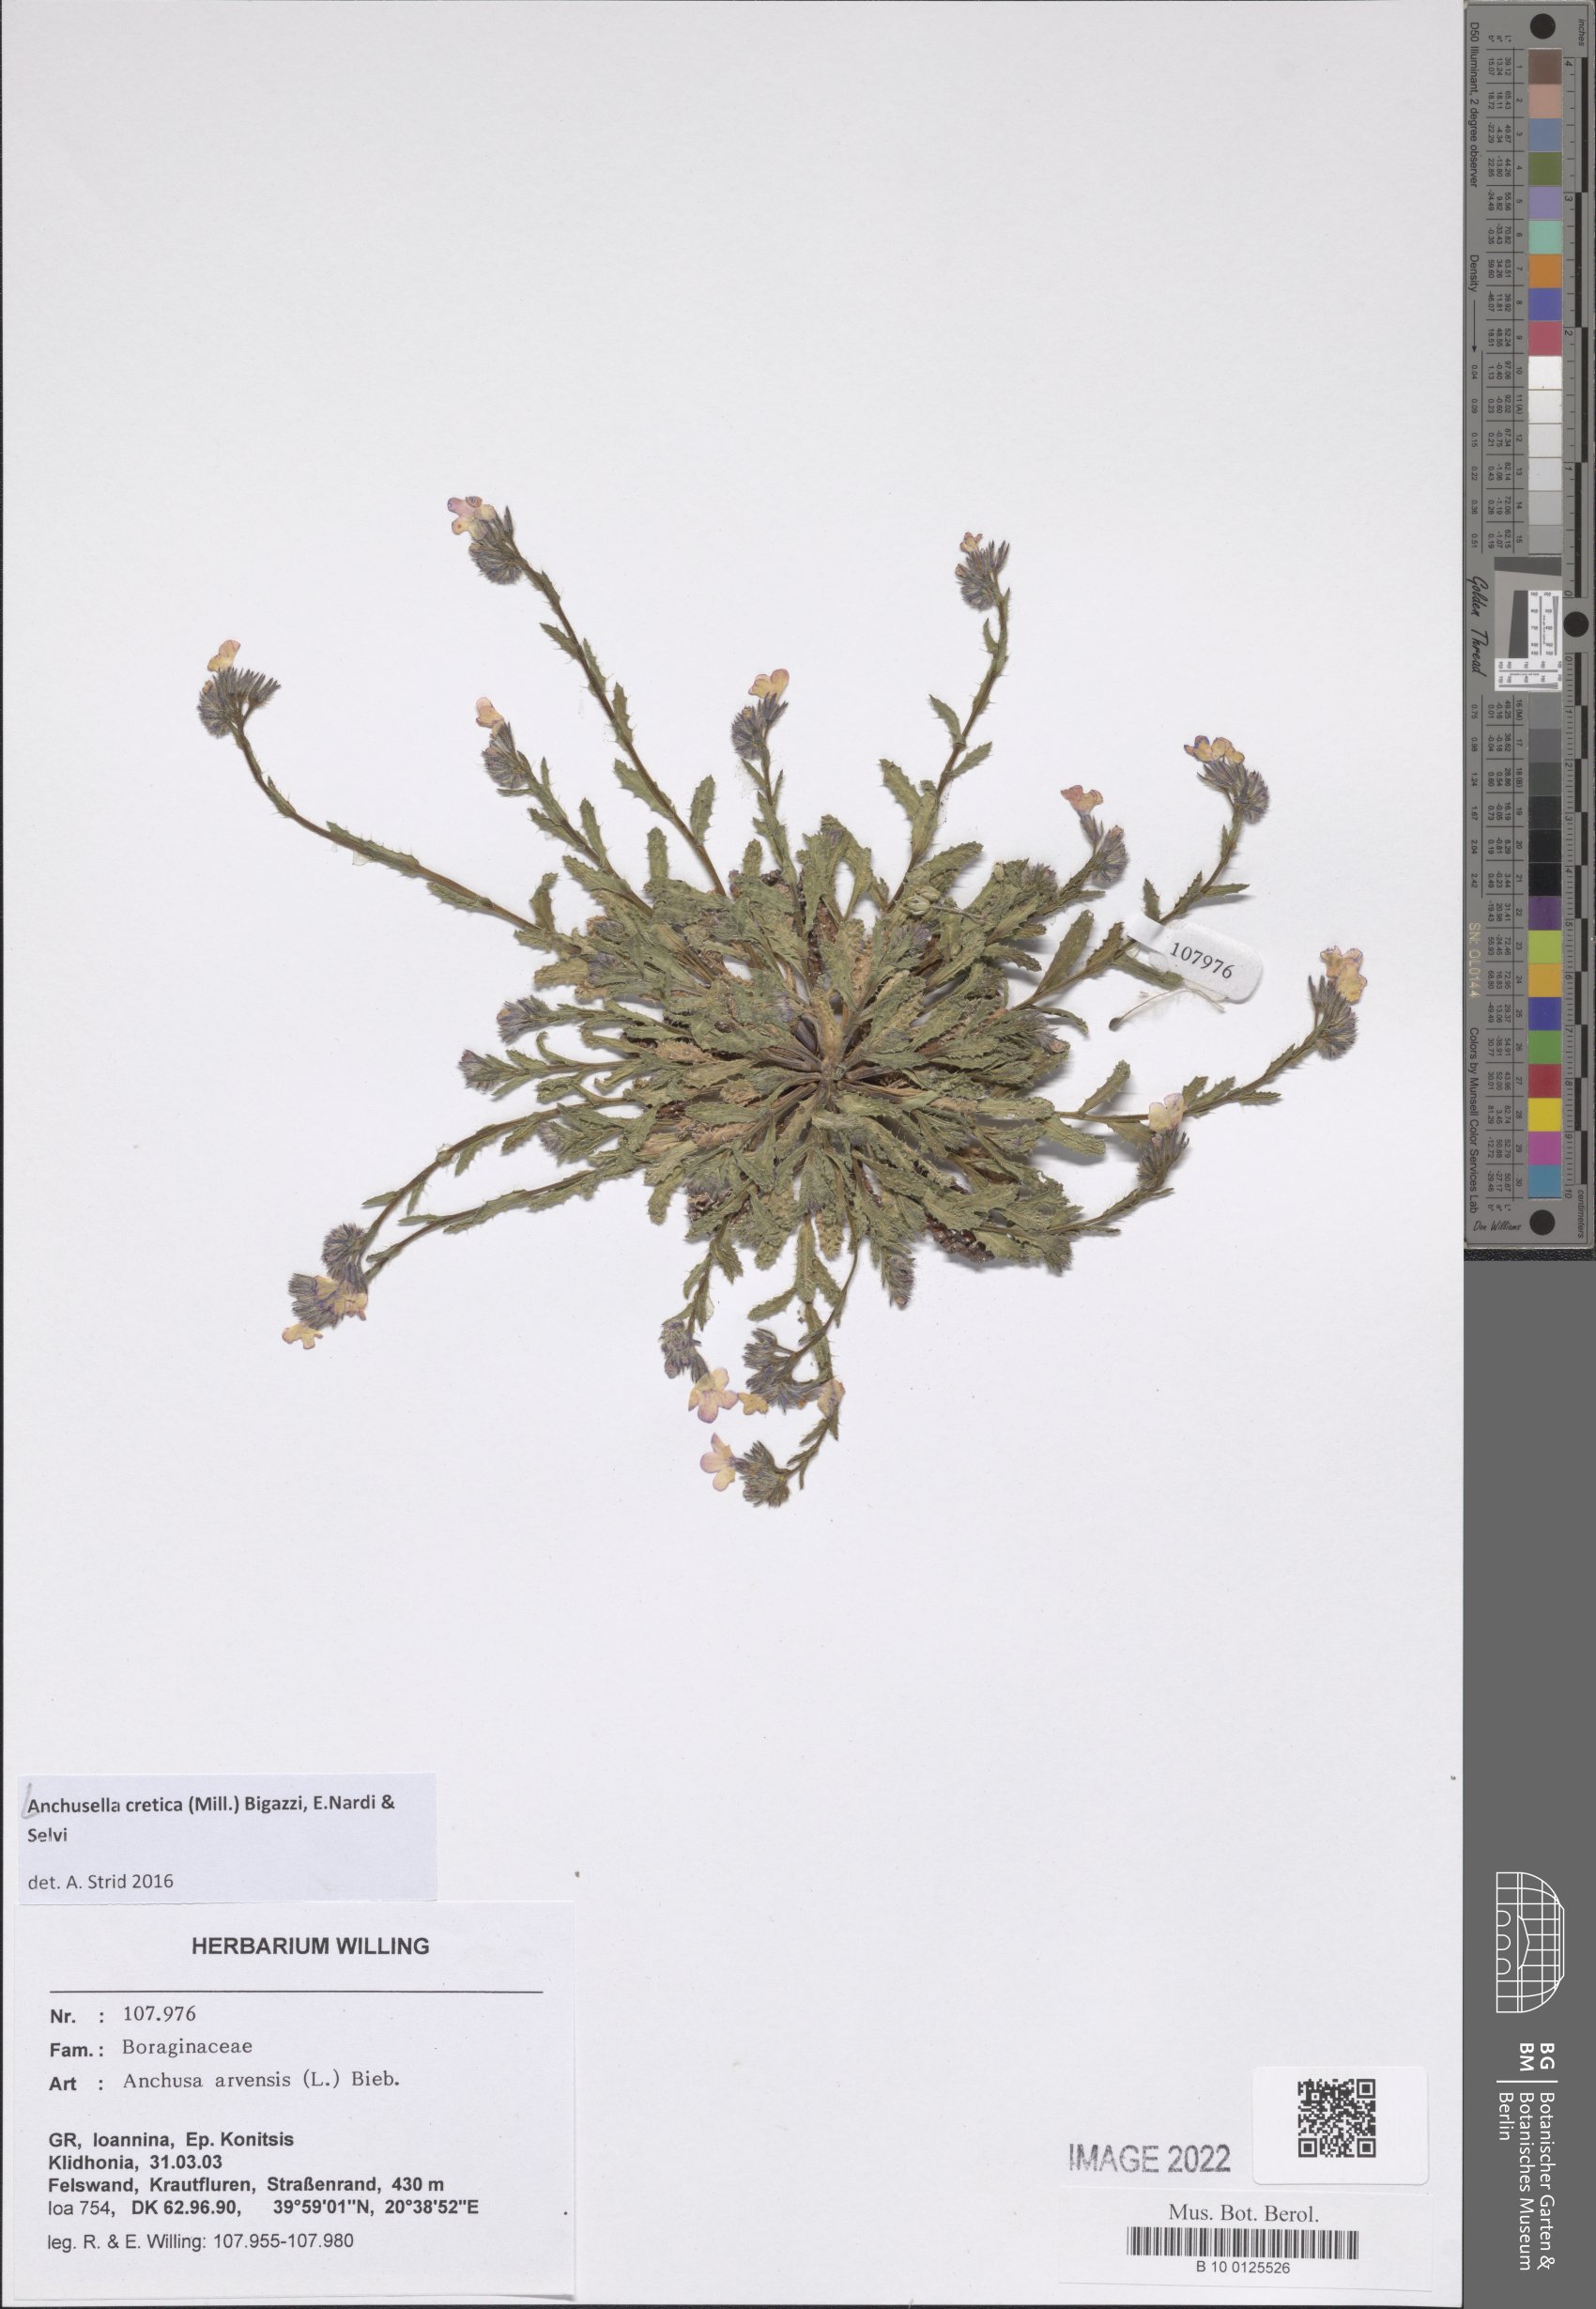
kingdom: Plantae
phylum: Tracheophyta
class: Magnoliopsida
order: Boraginales
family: Boraginaceae
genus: Anchusella
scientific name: Anchusella cretica
